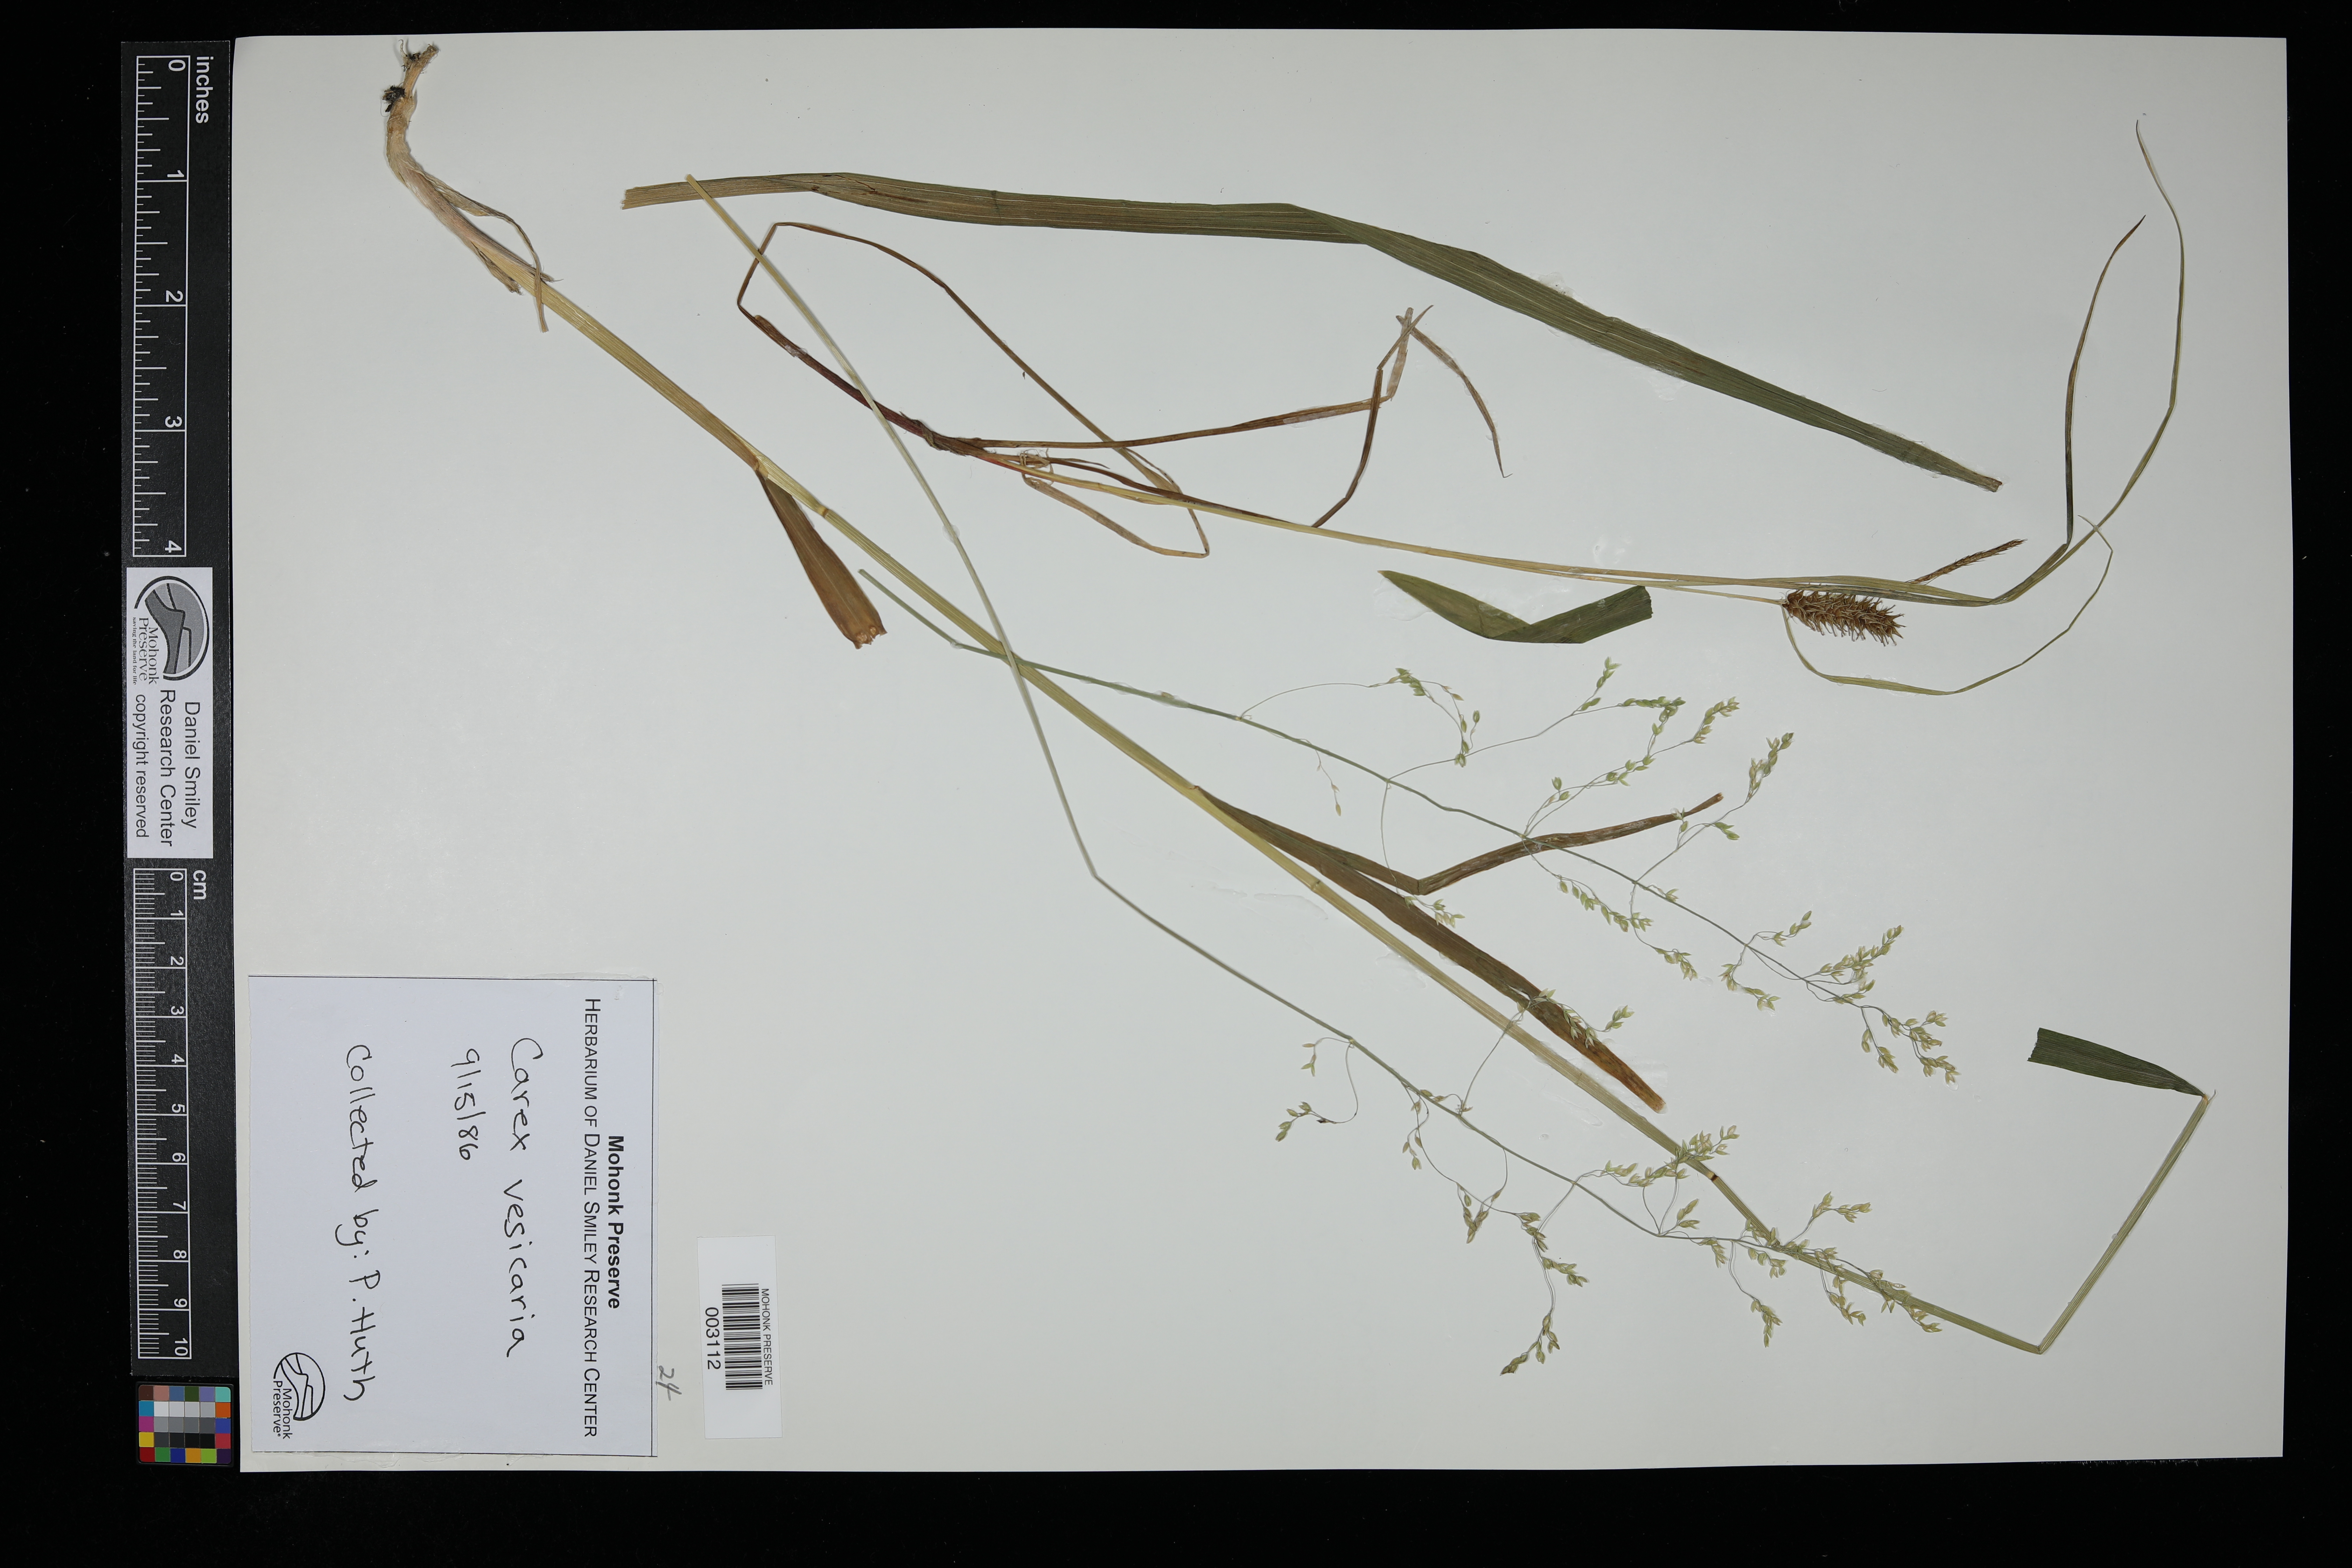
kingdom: Plantae
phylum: Tracheophyta
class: Liliopsida
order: Poales
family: Cyperaceae
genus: Carex
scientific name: Carex vesicaria
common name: Bladder-sedge
